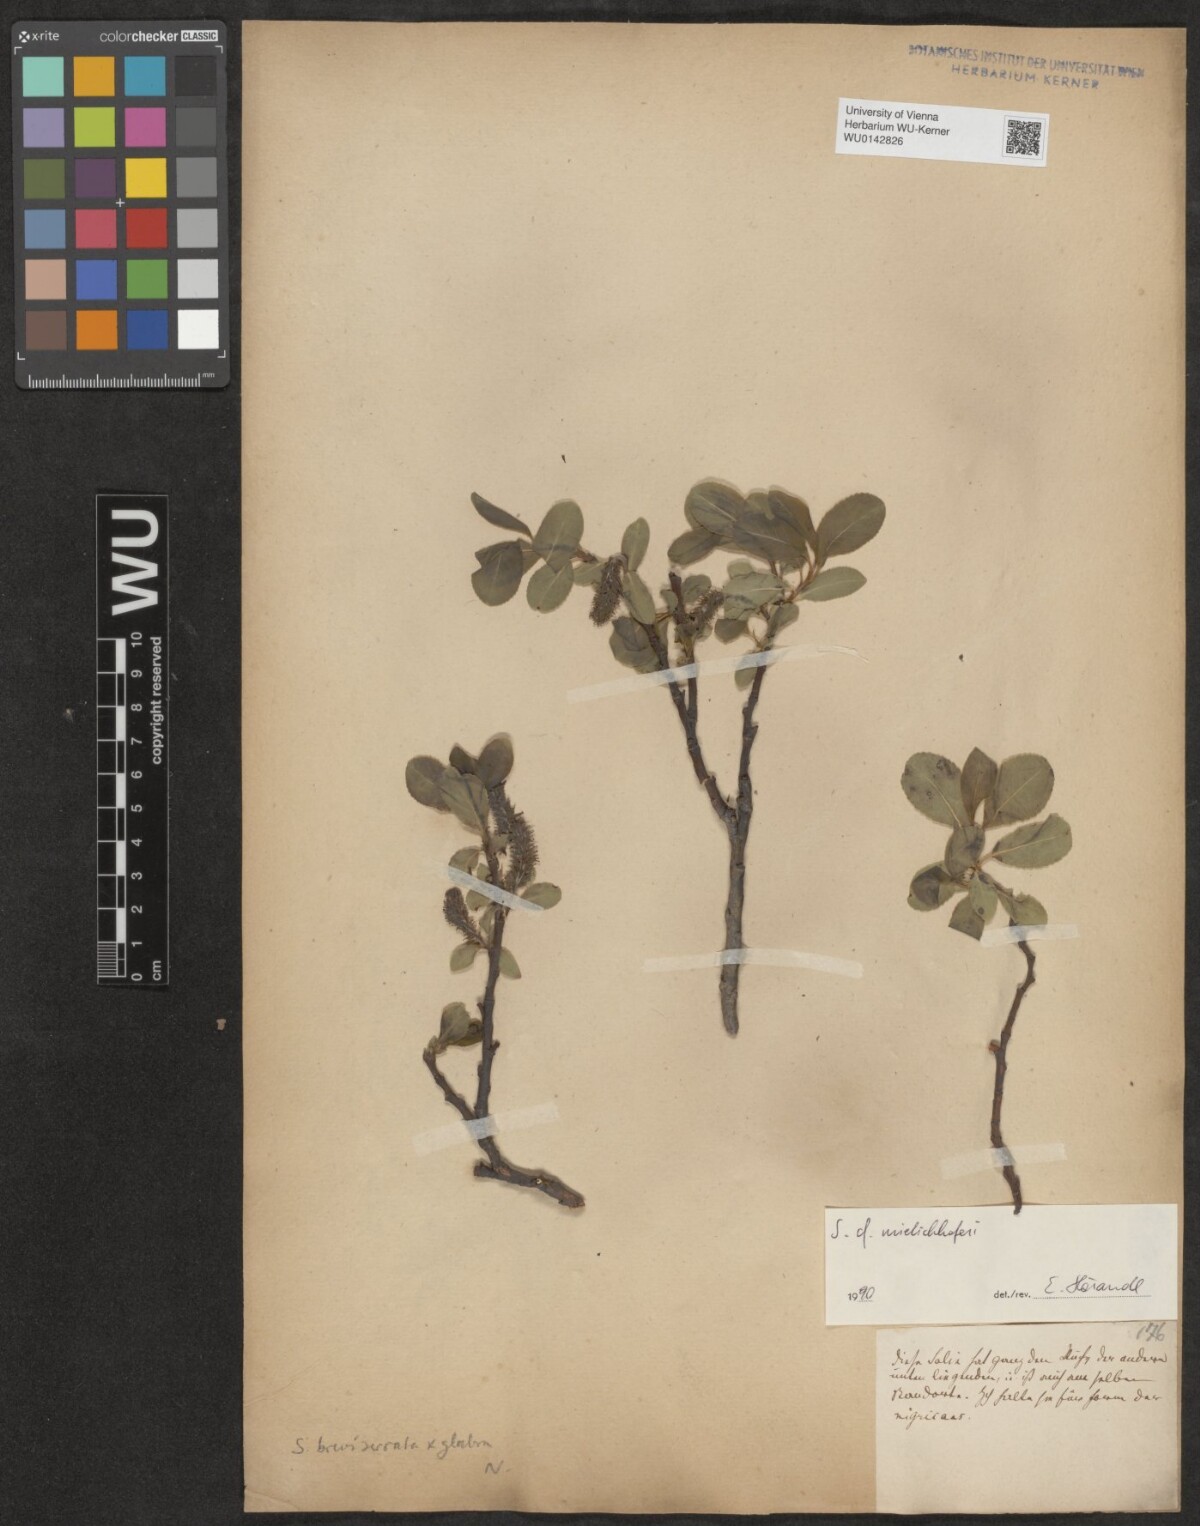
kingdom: Plantae
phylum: Tracheophyta
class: Magnoliopsida
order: Malpighiales
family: Salicaceae
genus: Salix
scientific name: Salix mielichhoferi
